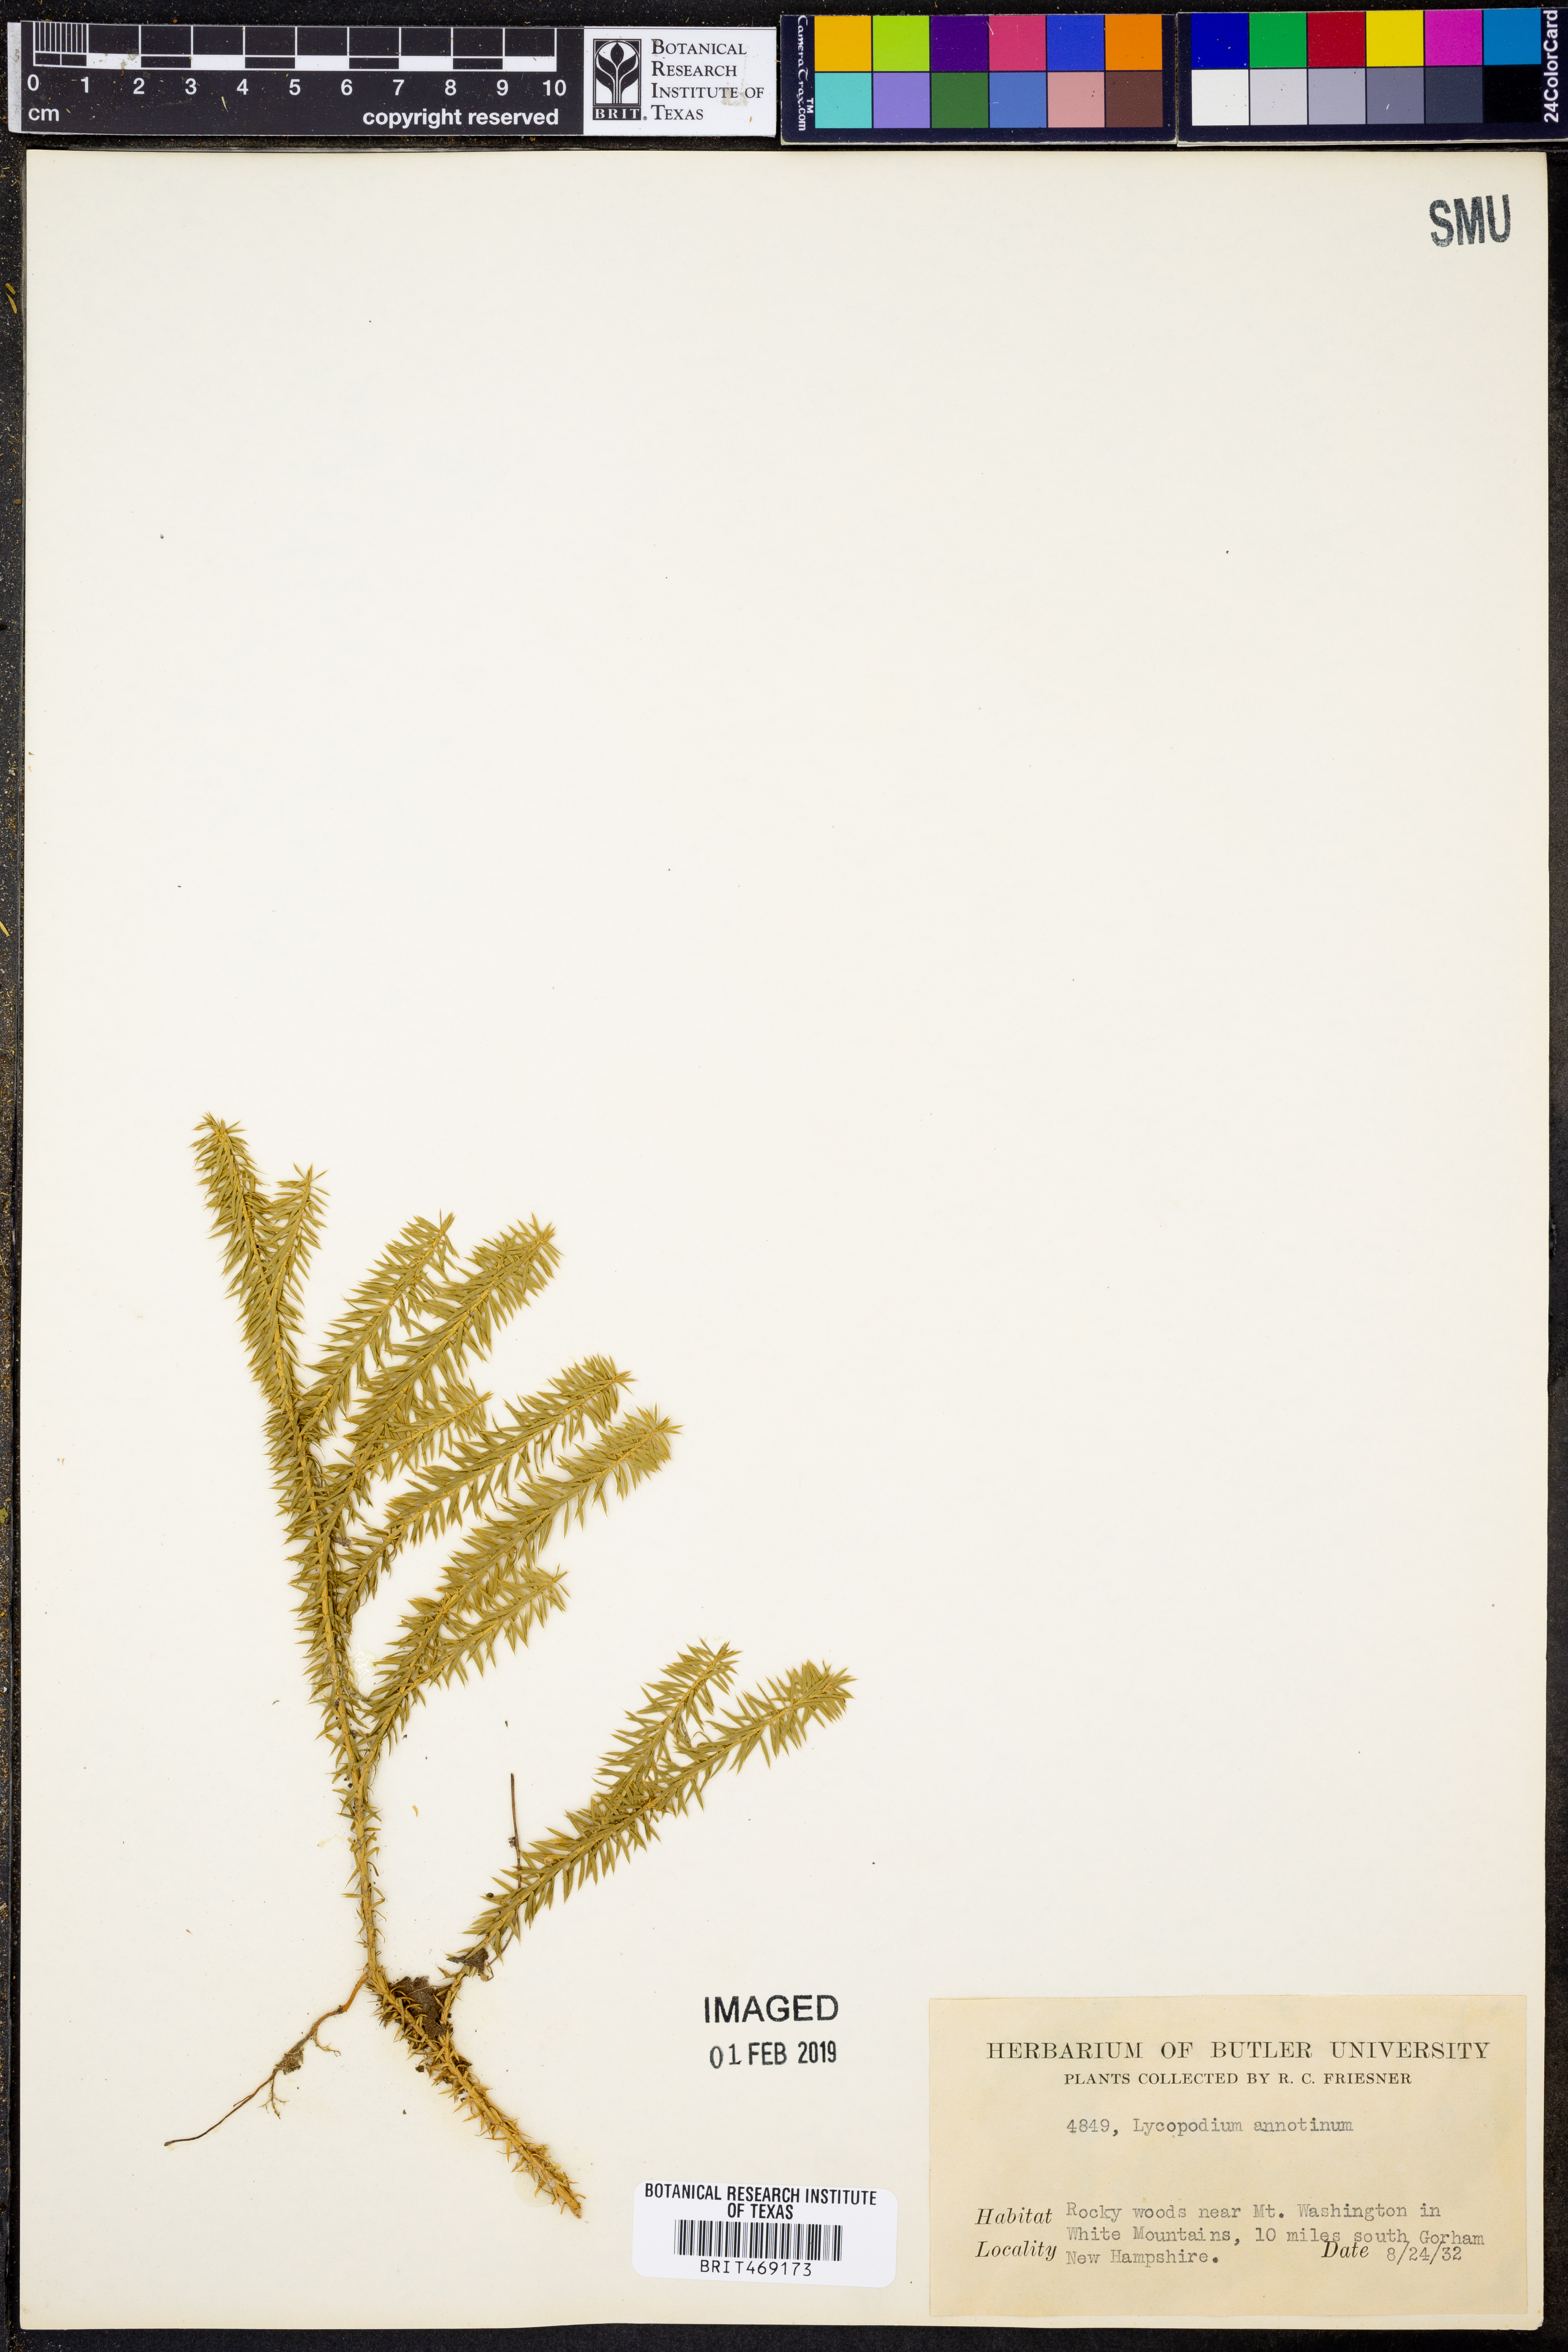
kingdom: Plantae
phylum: Tracheophyta
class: Lycopodiopsida
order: Lycopodiales
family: Lycopodiaceae
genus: Spinulum
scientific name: Spinulum annotinum
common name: Interrupted club-moss
